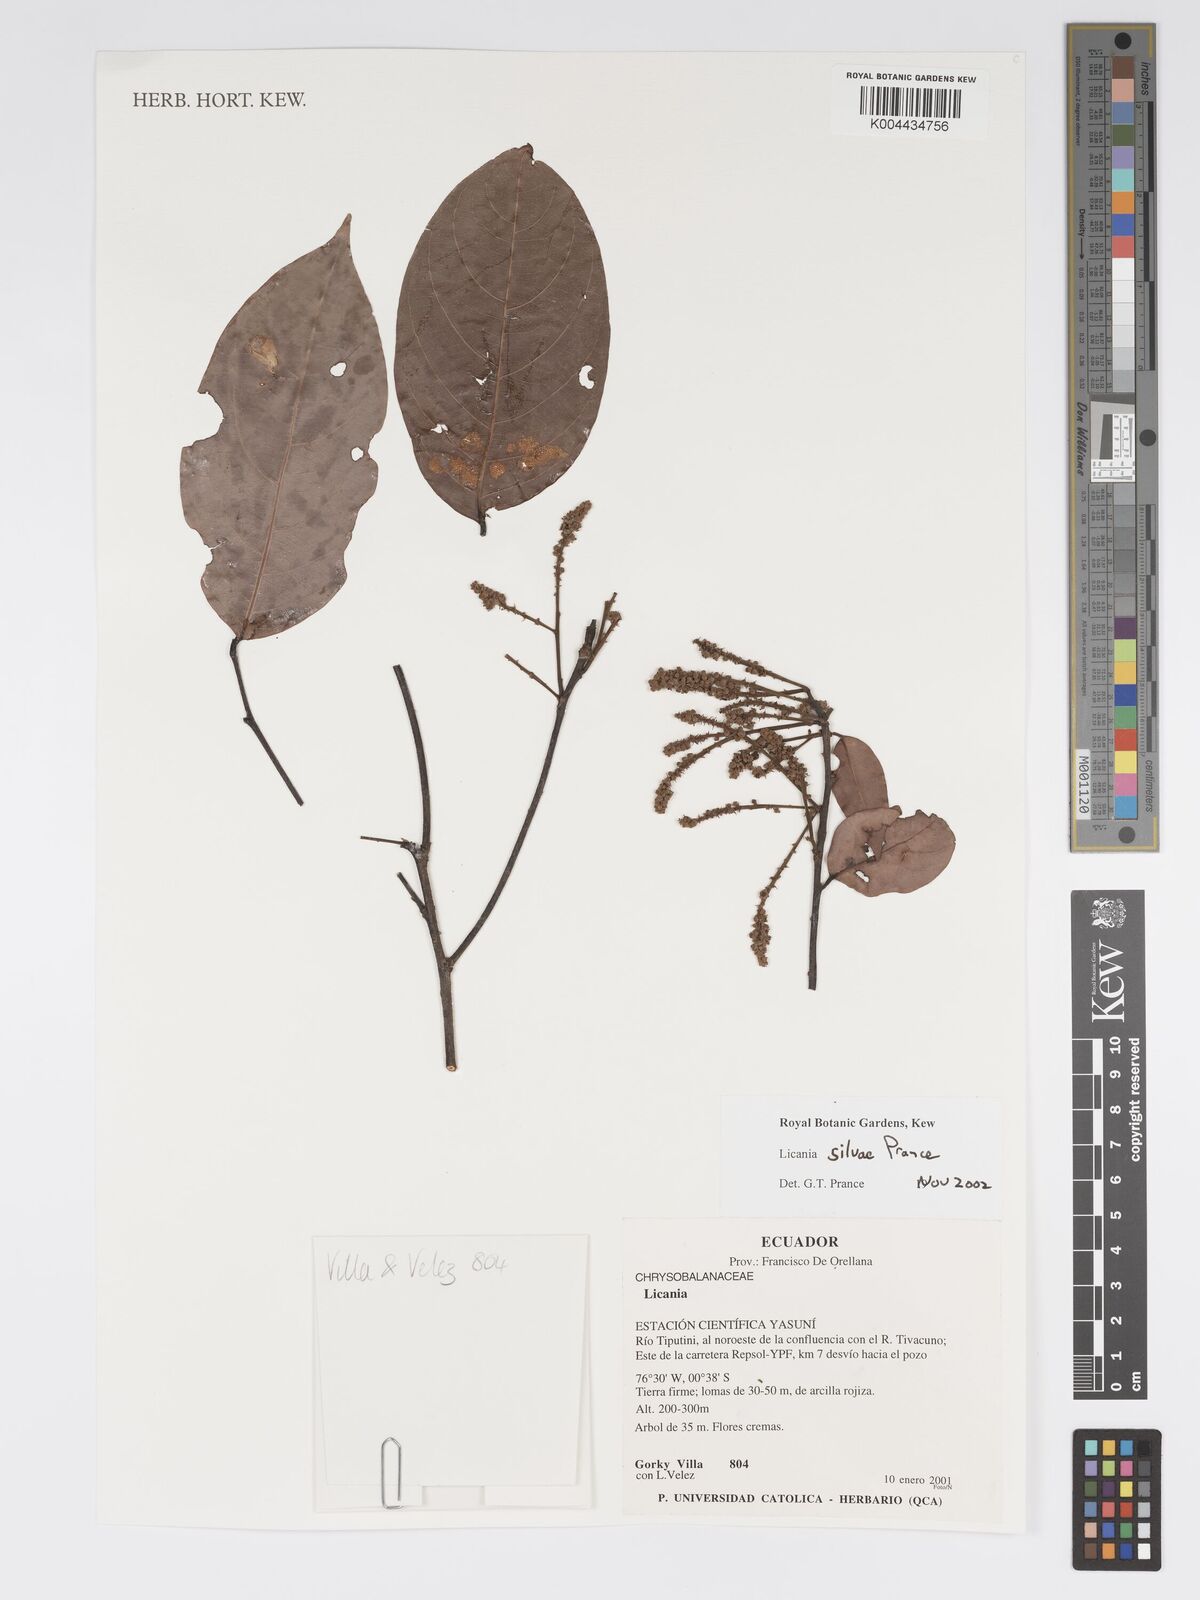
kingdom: Plantae
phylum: Tracheophyta
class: Magnoliopsida
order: Malpighiales
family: Chrysobalanaceae
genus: Licania
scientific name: Licania silvae
